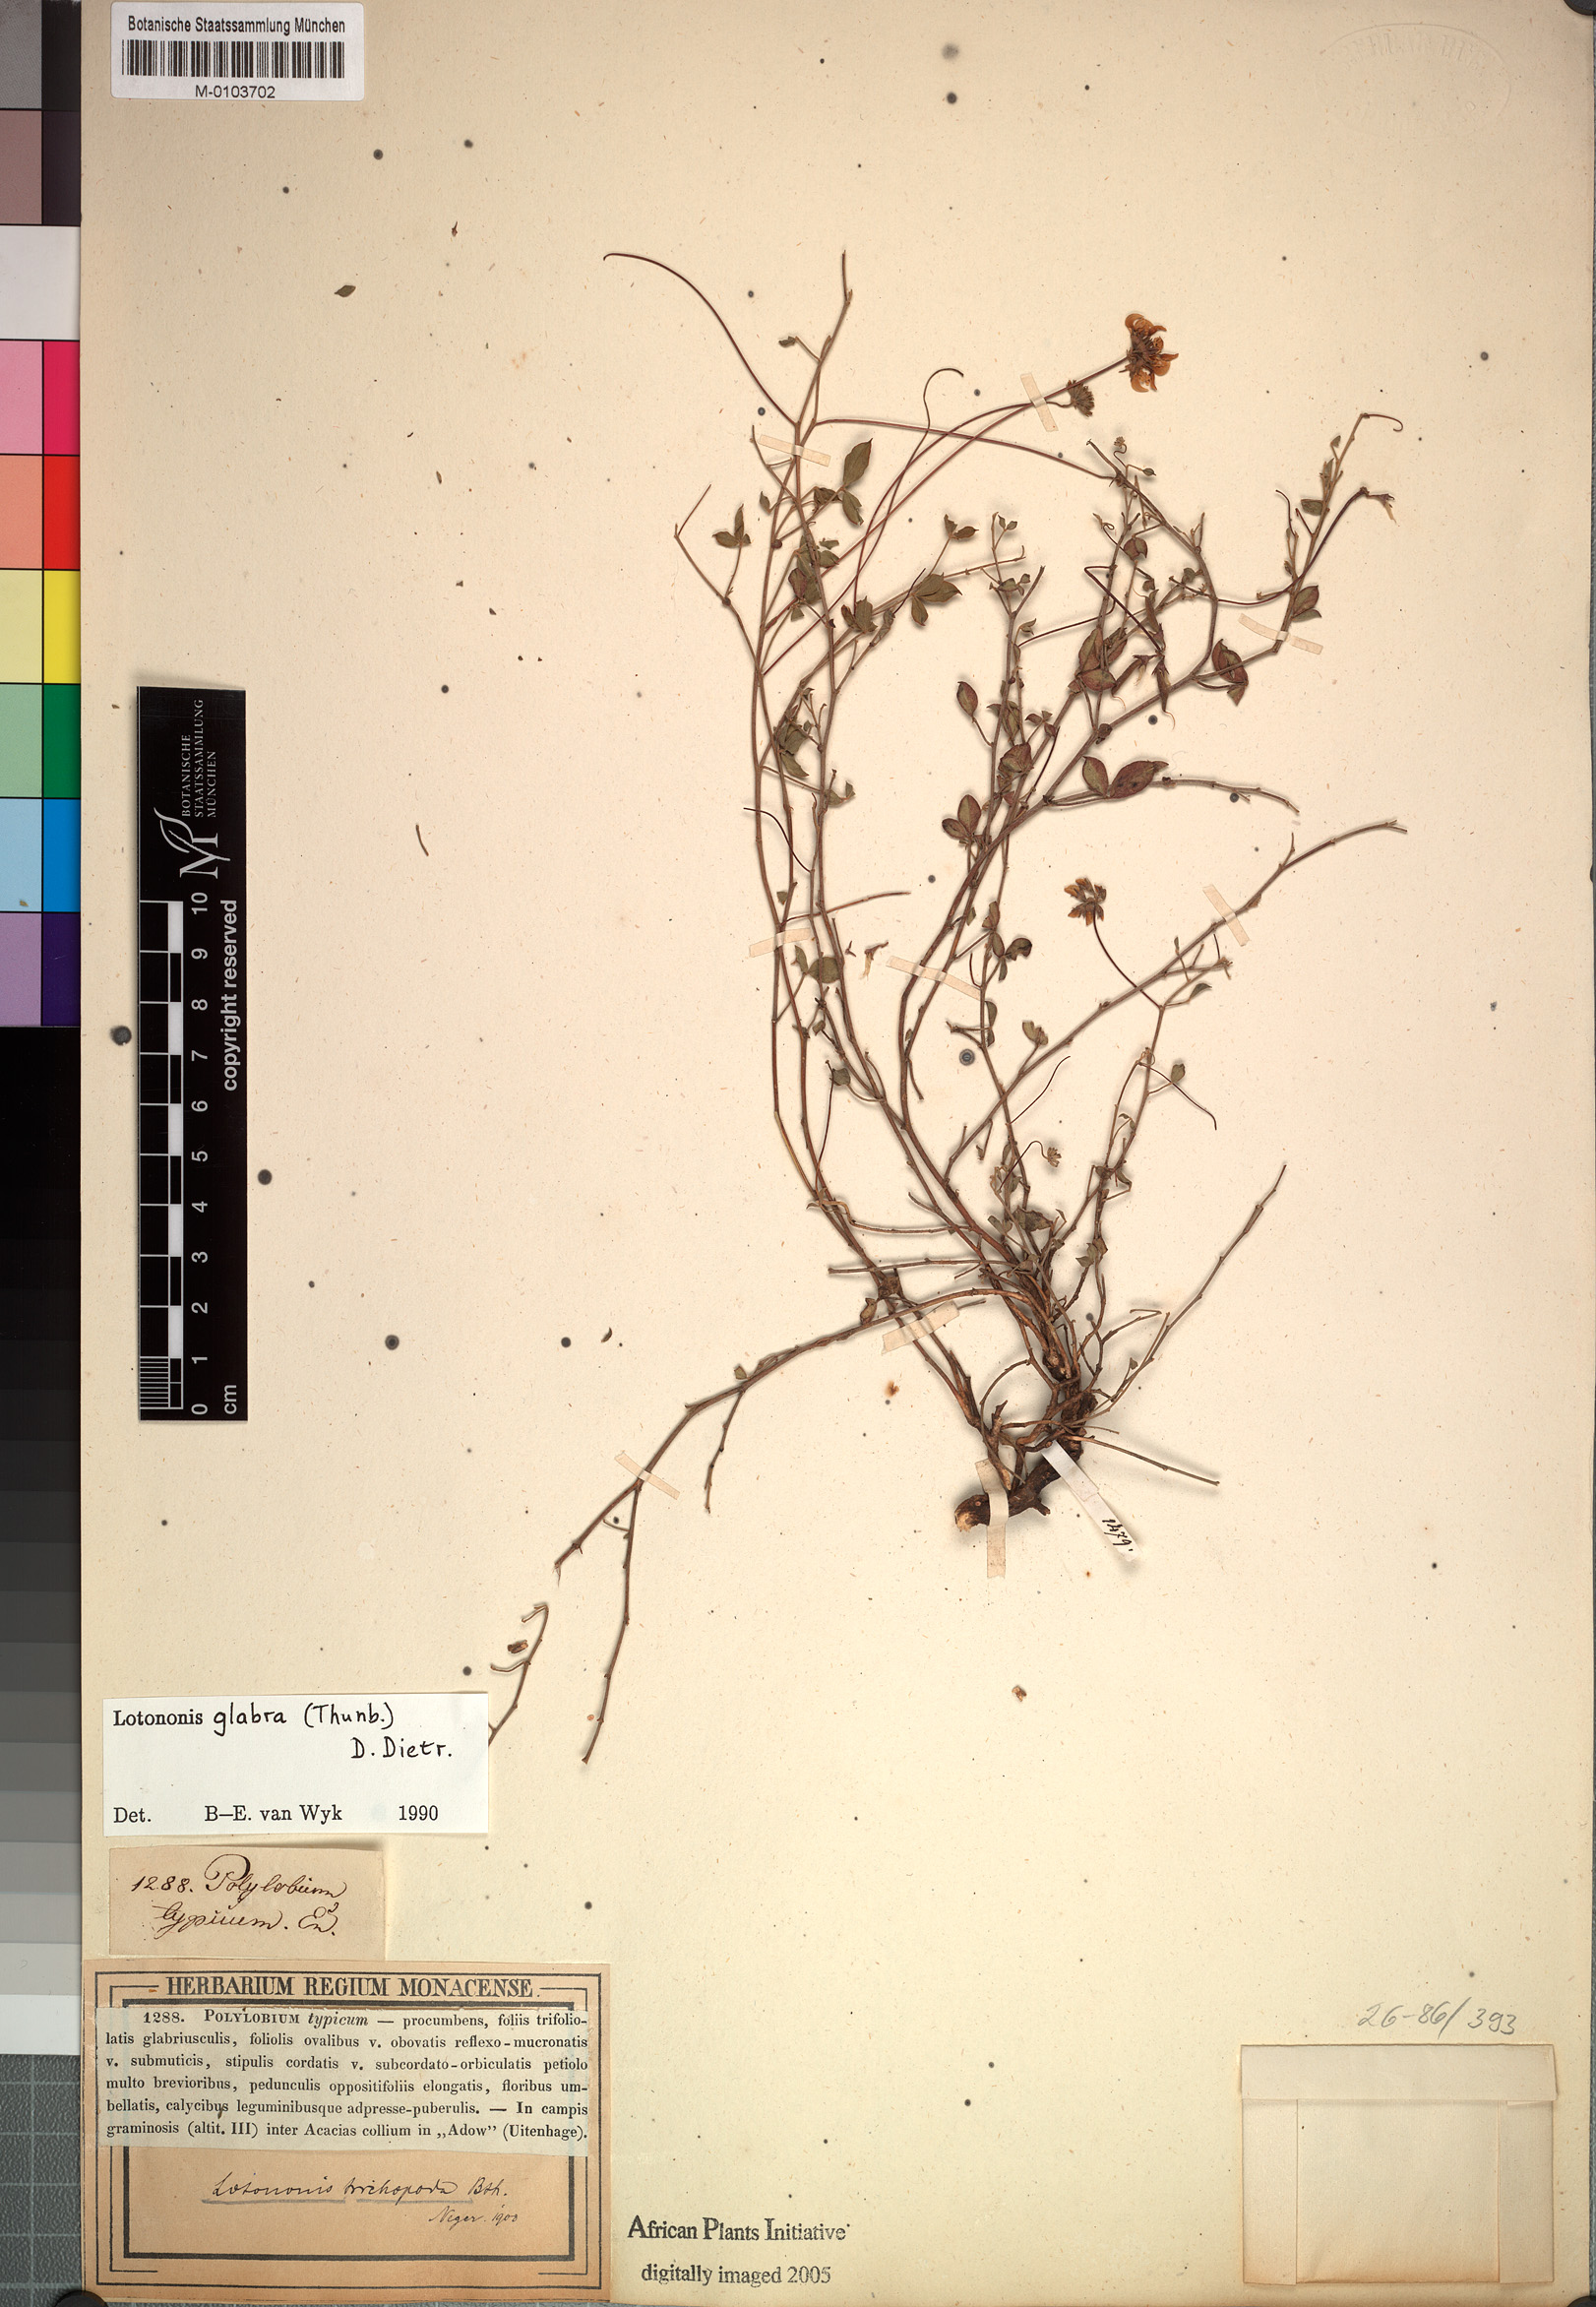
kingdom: Plantae
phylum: Tracheophyta
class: Magnoliopsida
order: Fabales
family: Fabaceae
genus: Lotononis
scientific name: Lotononis glabra
